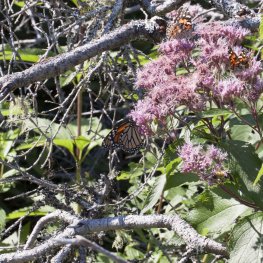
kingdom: Animalia
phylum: Arthropoda
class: Insecta
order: Lepidoptera
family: Nymphalidae
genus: Danaus
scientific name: Danaus plexippus
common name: Monarch
